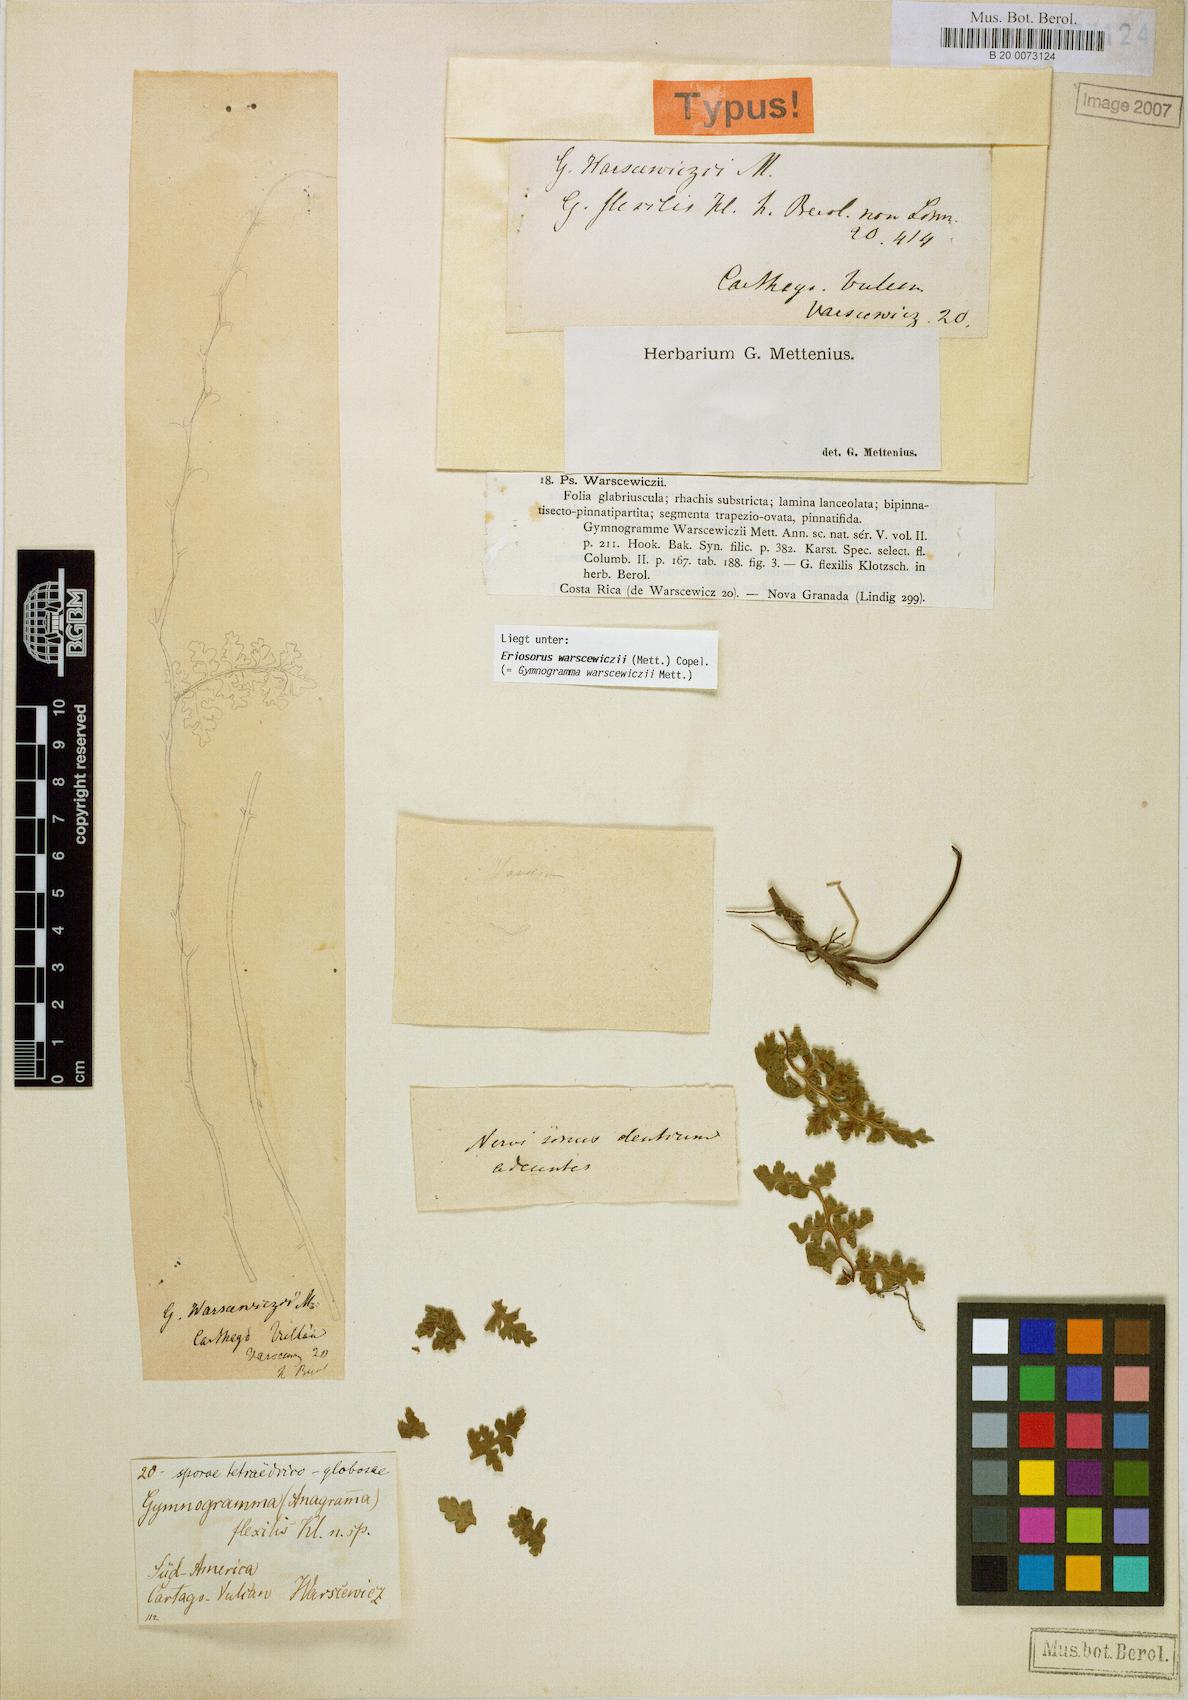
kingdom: Plantae
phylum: Tracheophyta
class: Polypodiopsida
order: Polypodiales
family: Pteridaceae
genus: Jamesonia
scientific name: Jamesonia warscewiczii
